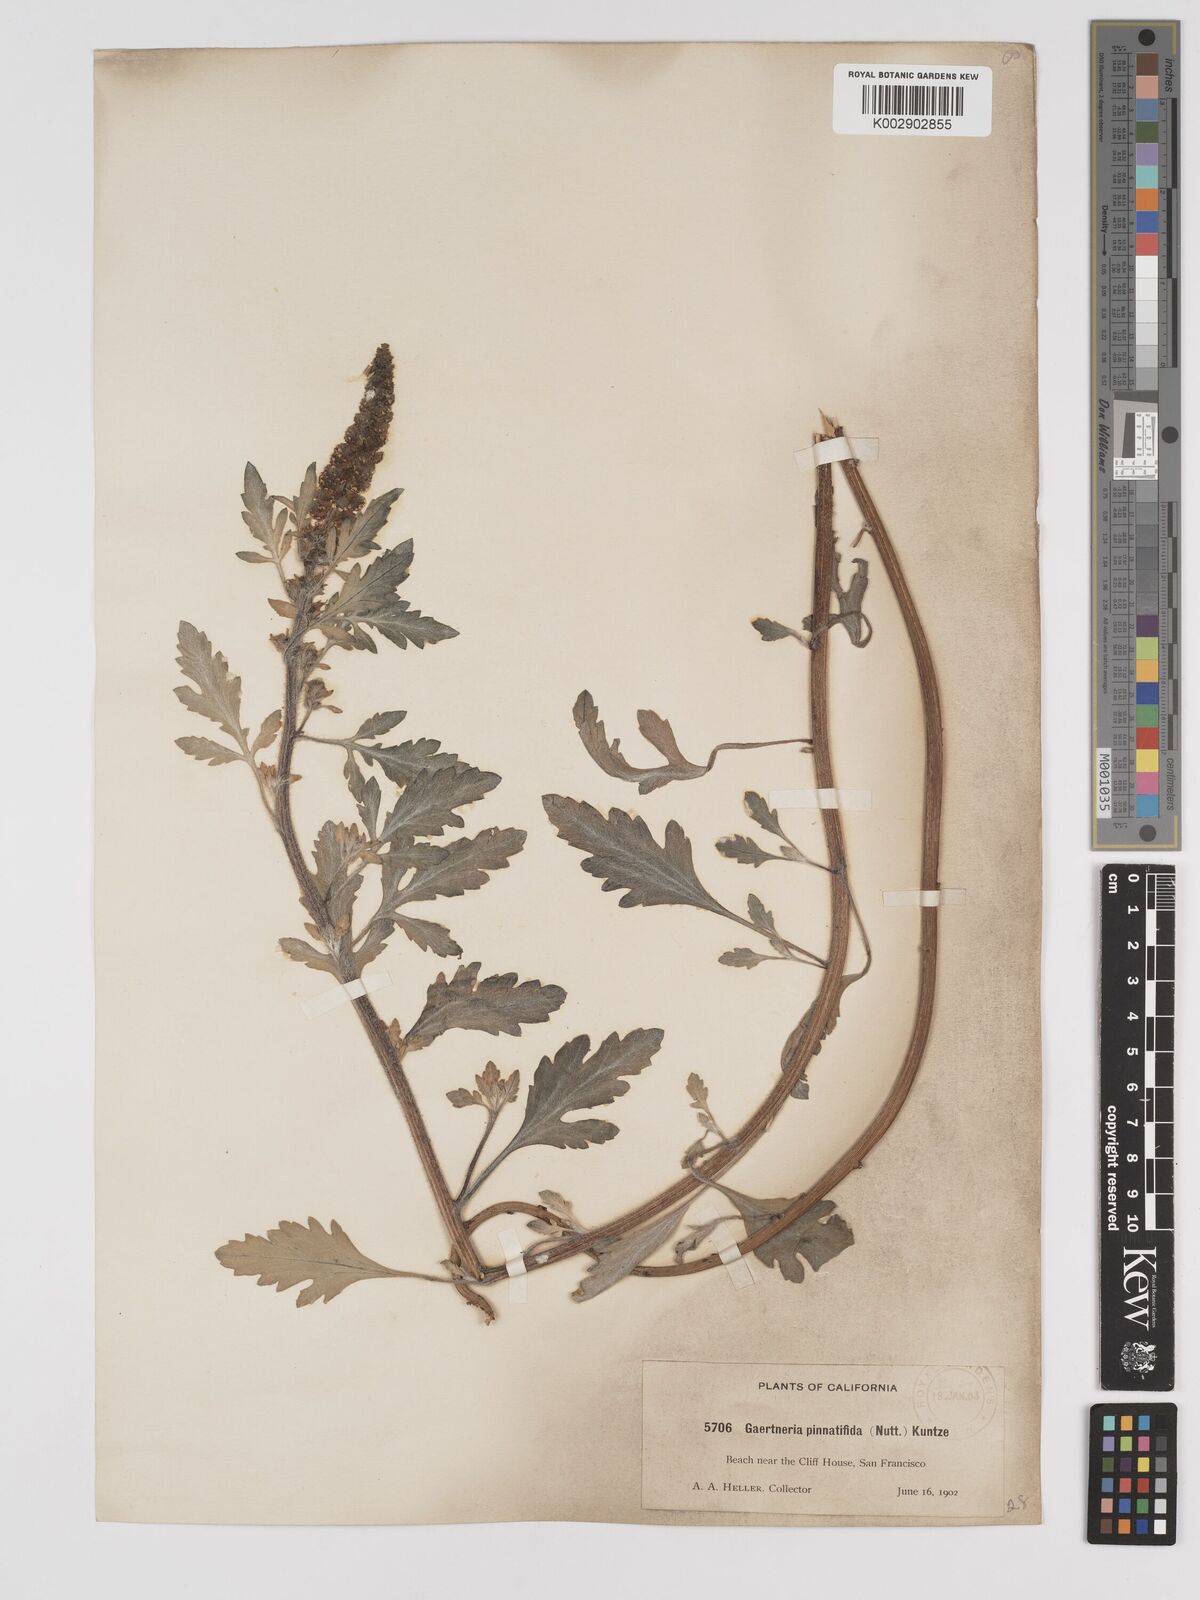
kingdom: Plantae
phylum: Tracheophyta
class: Magnoliopsida
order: Asterales
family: Asteraceae
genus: Ambrosia
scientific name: Ambrosia chamissonis
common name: Beachbur
